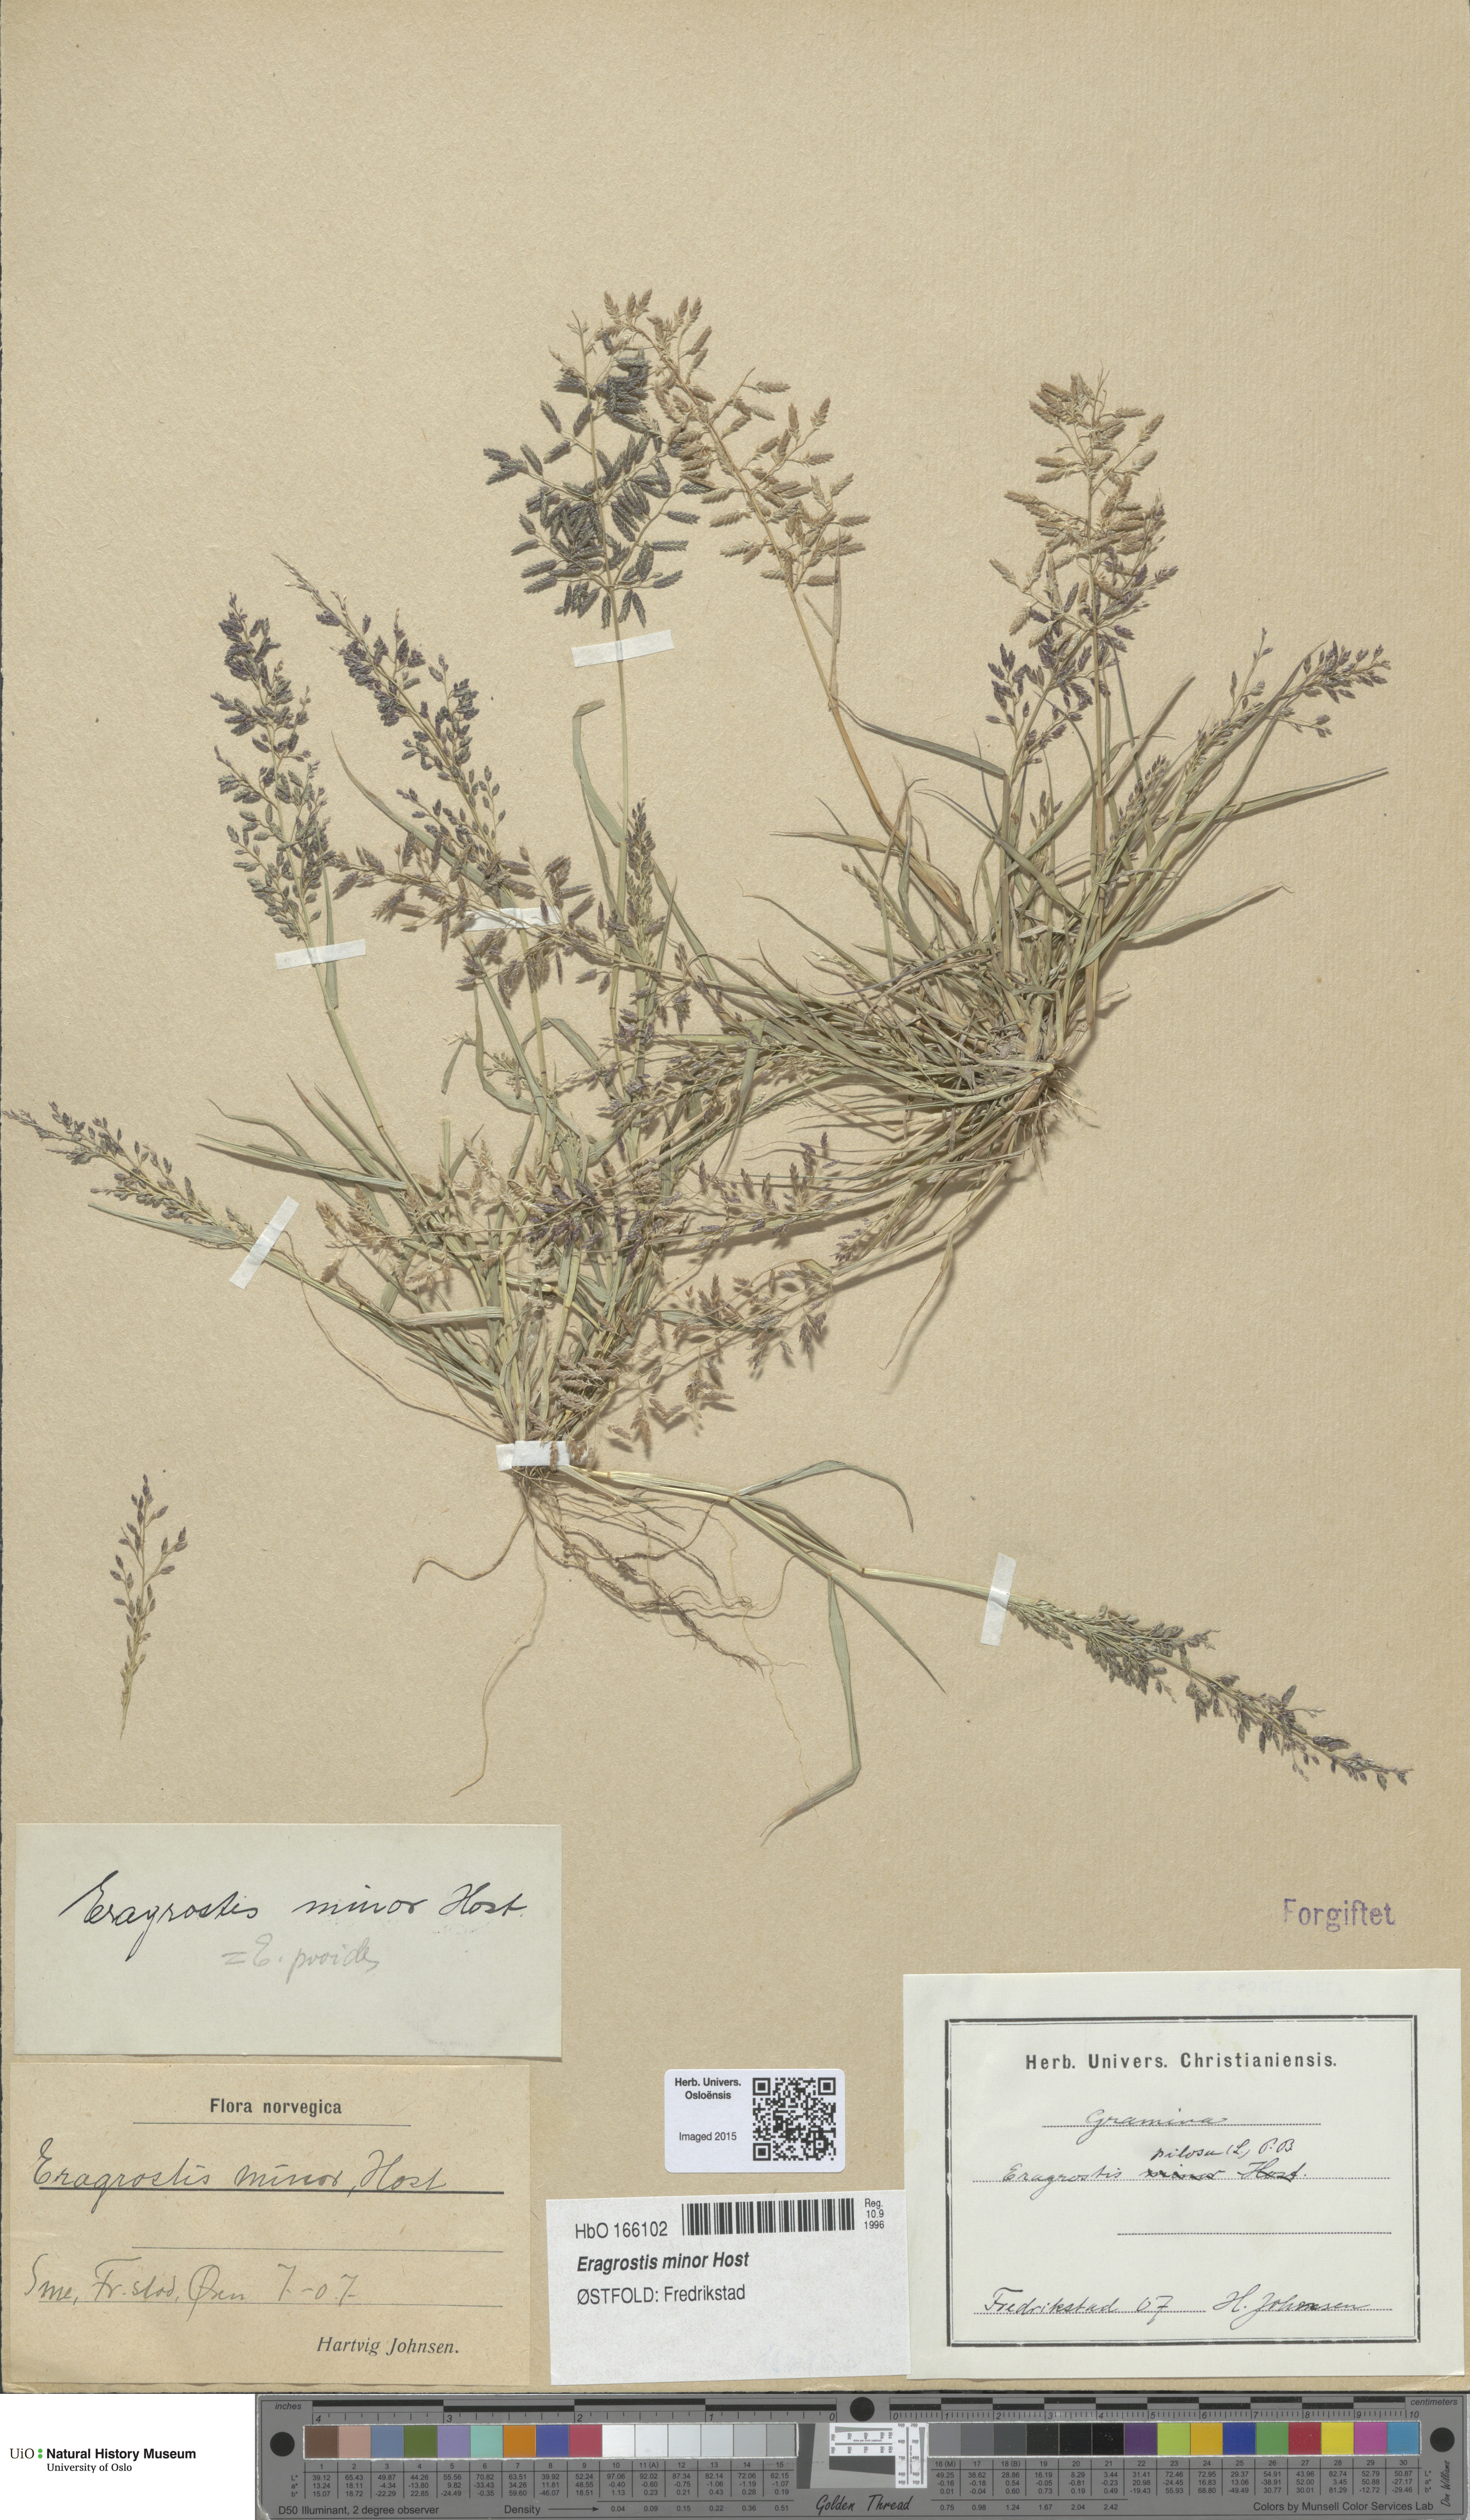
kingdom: Plantae
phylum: Tracheophyta
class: Liliopsida
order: Poales
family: Poaceae
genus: Eragrostis
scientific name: Eragrostis minor
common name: Small love-grass
